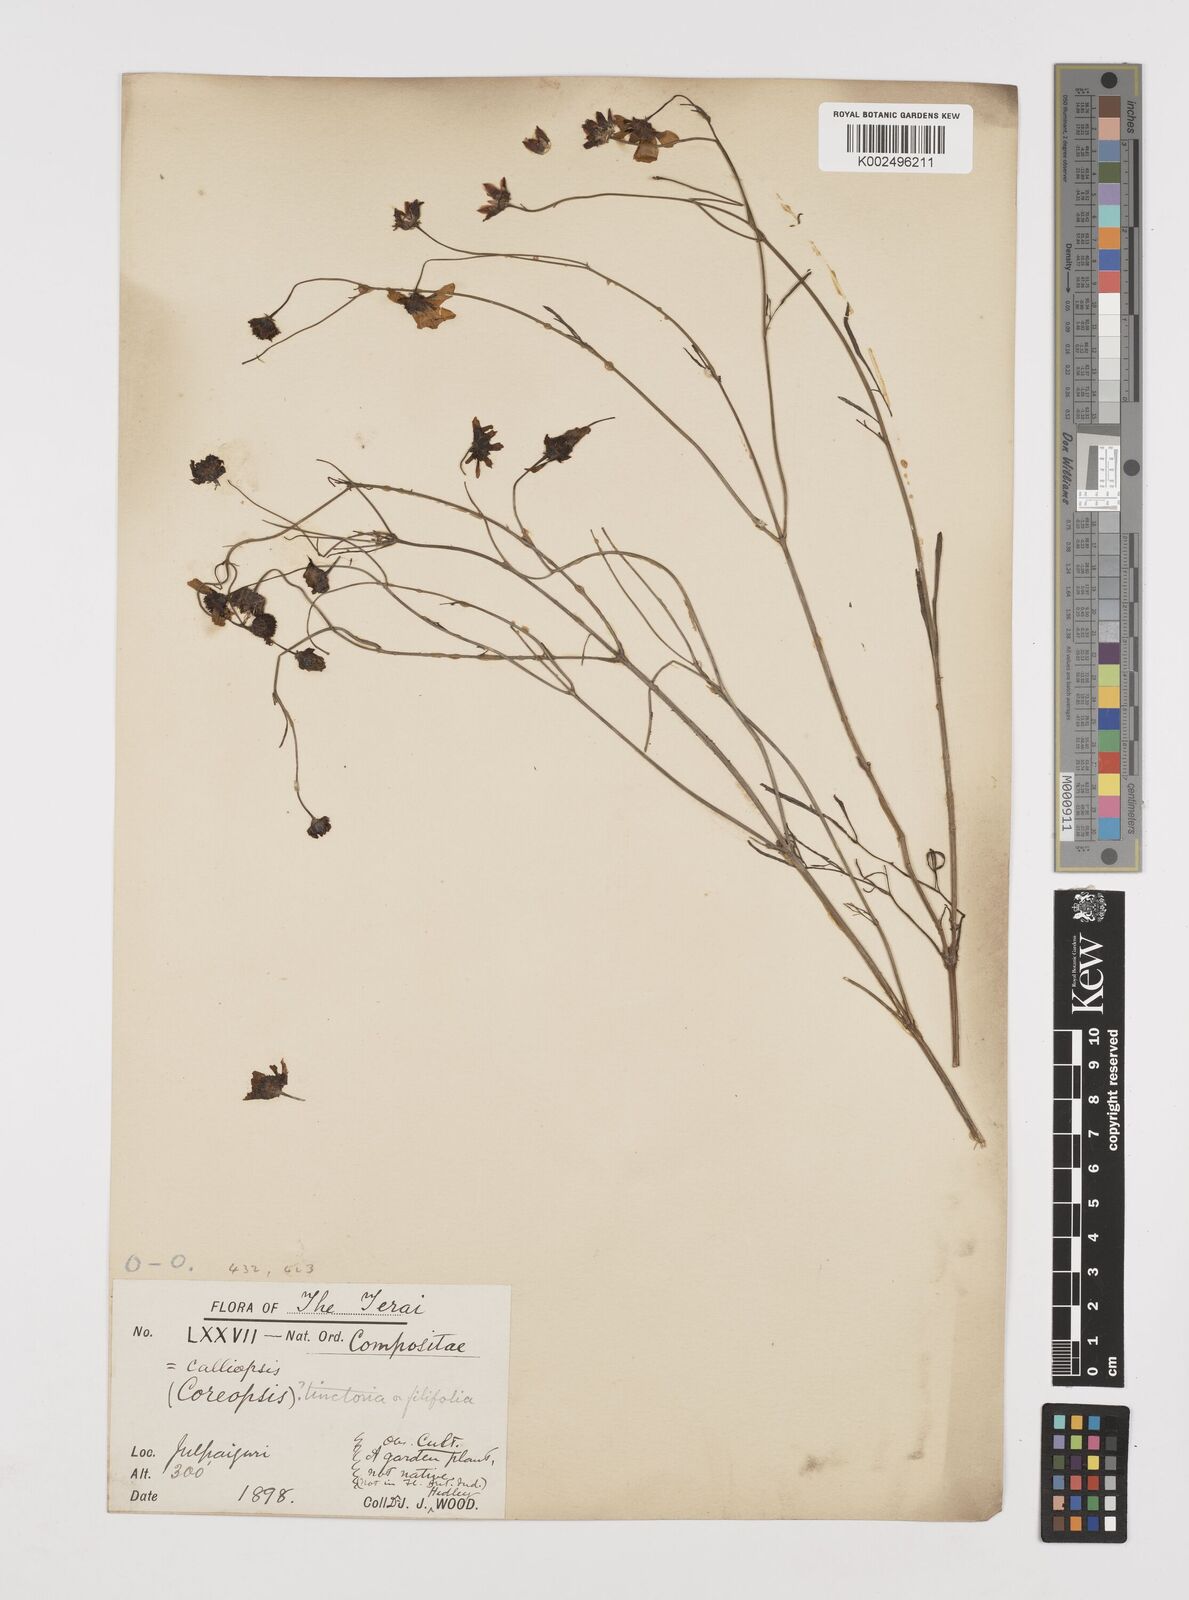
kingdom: Plantae
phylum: Tracheophyta
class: Magnoliopsida
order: Asterales
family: Asteraceae
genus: Coreopsis
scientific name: Coreopsis tinctoria
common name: Garden tickseed
